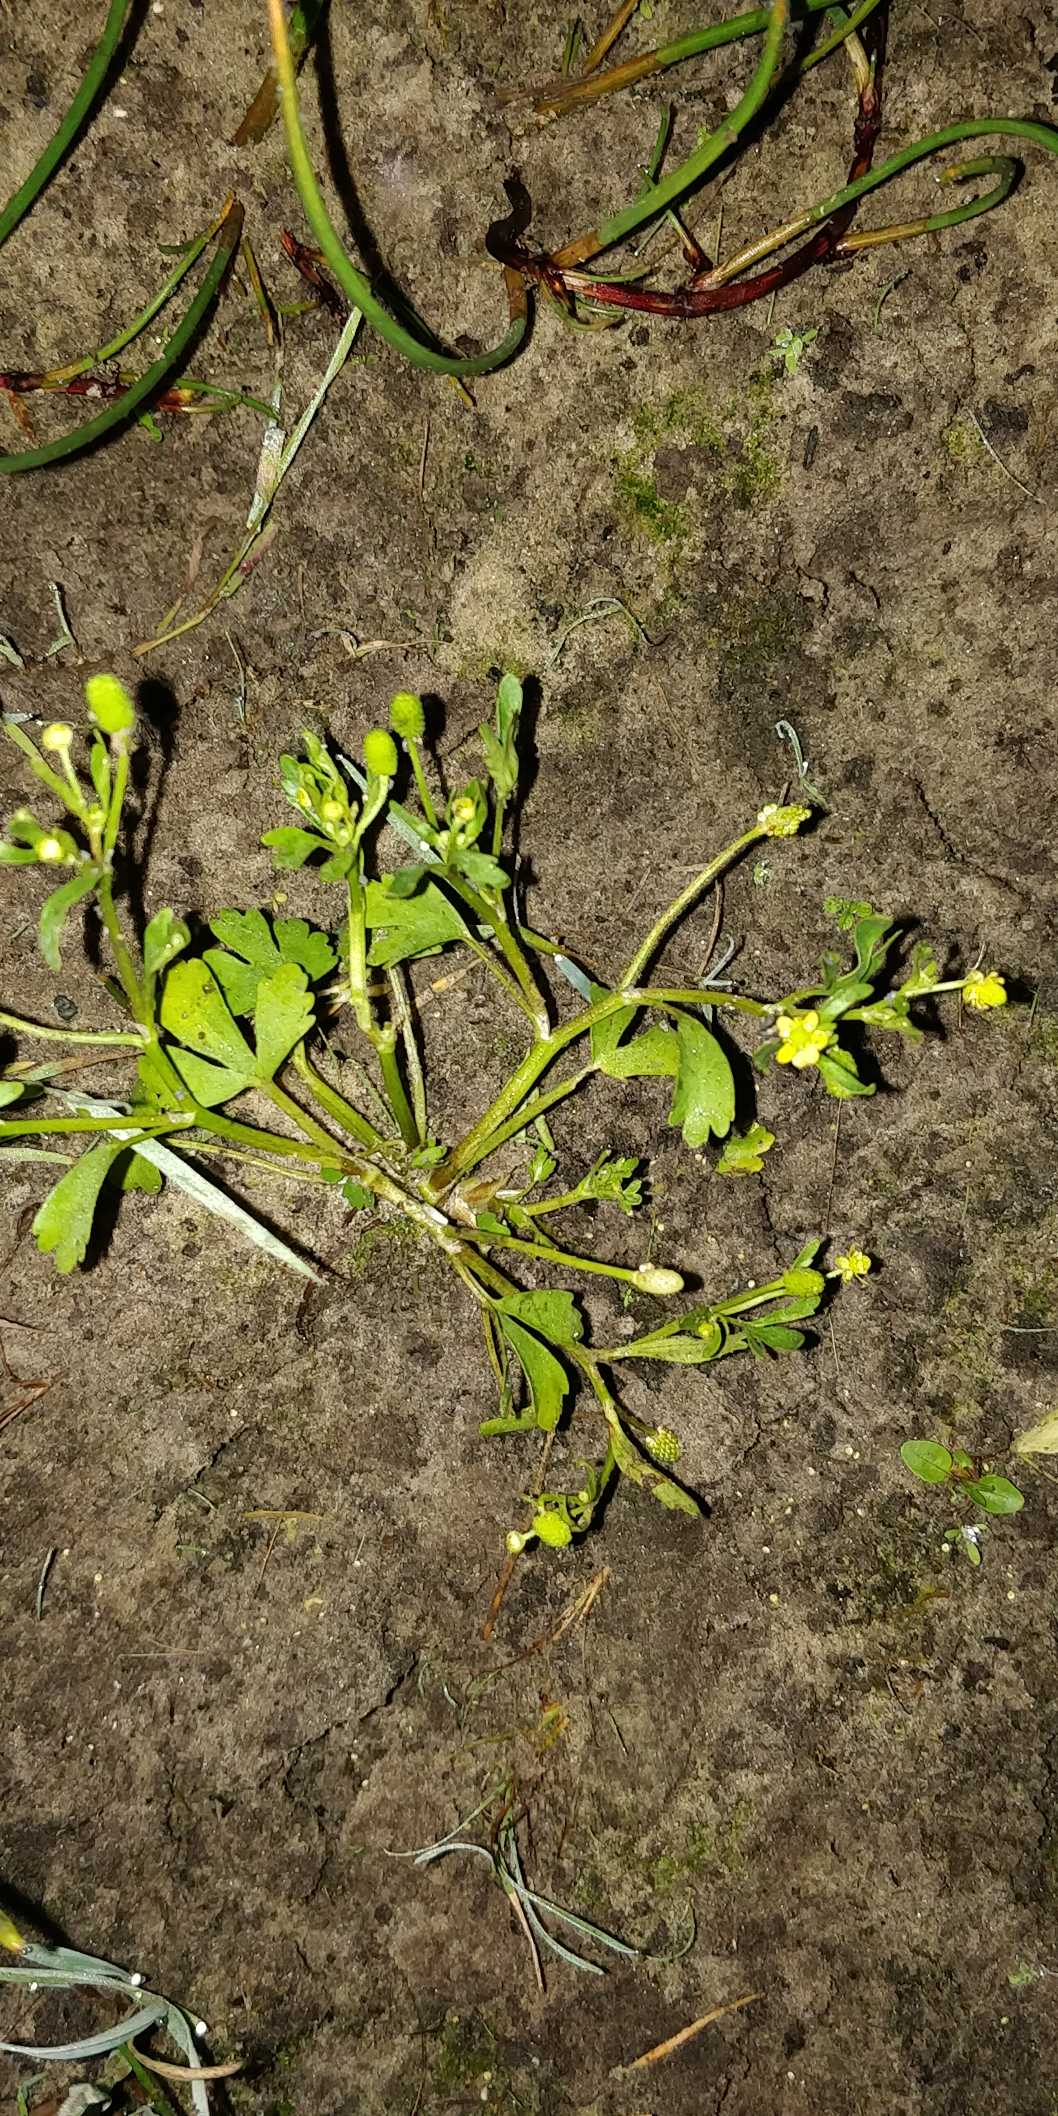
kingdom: Plantae
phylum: Tracheophyta
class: Magnoliopsida
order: Ranunculales
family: Ranunculaceae
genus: Ranunculus
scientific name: Ranunculus sceleratus
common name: Tigger-ranunkel
